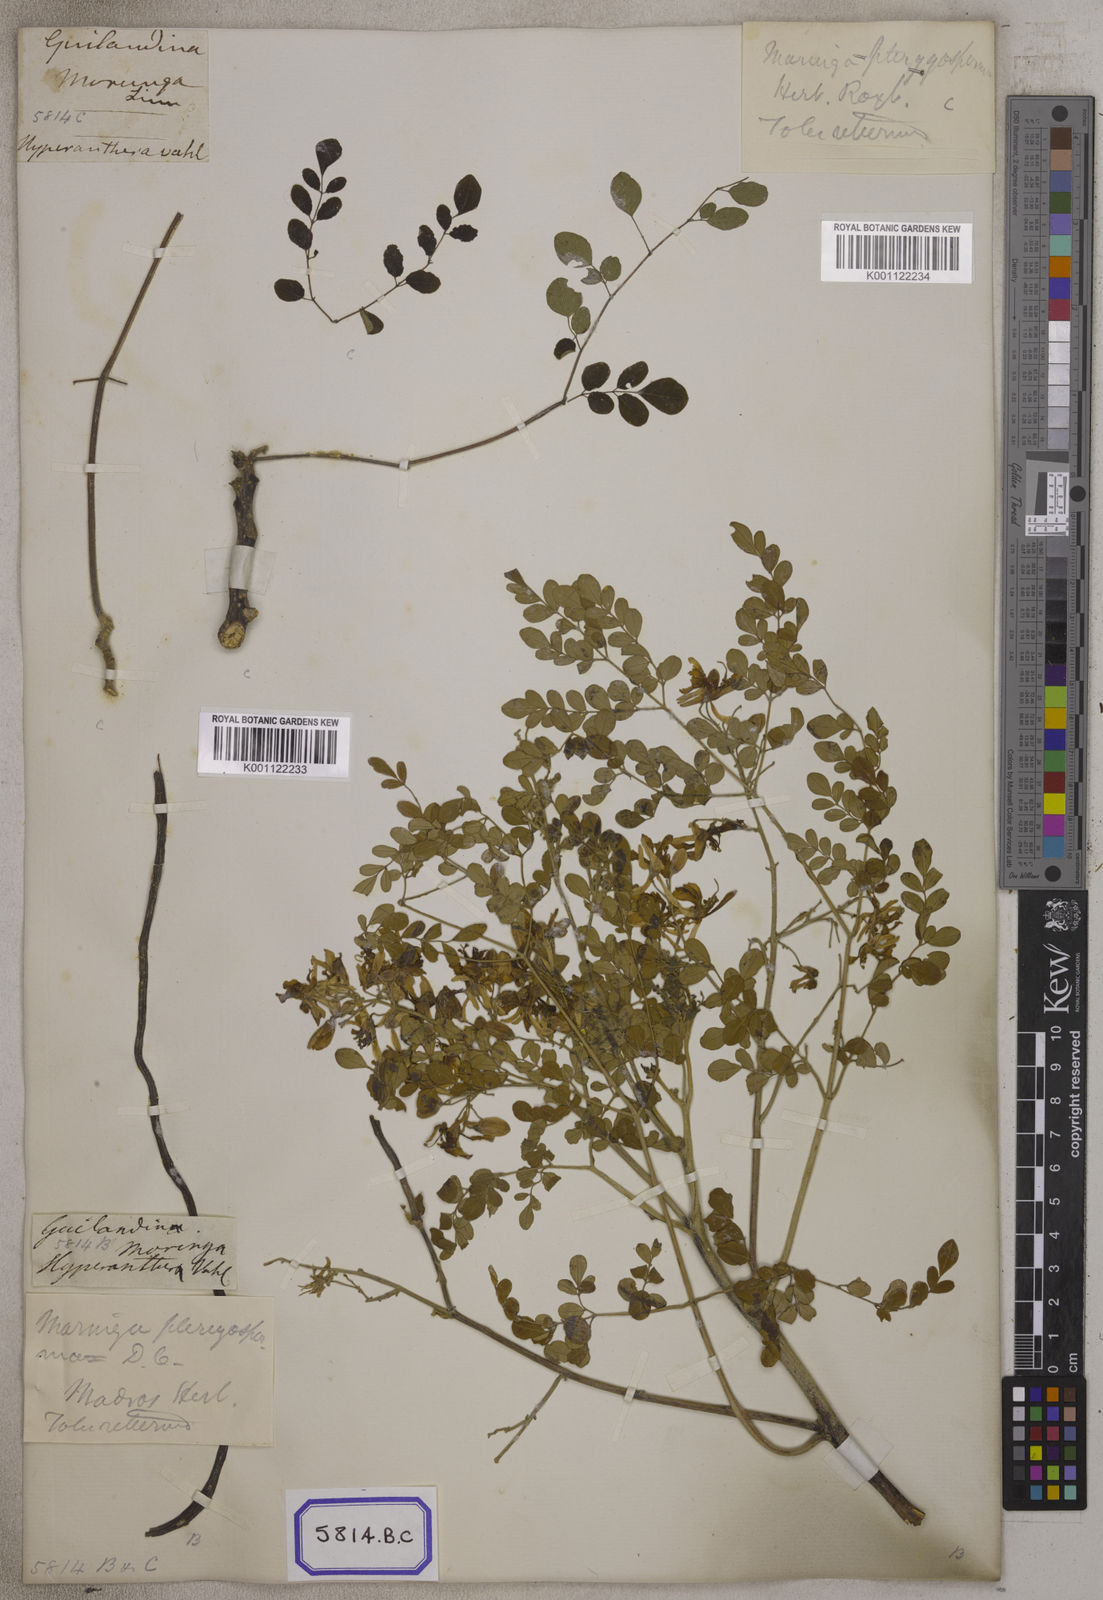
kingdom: Plantae
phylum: Tracheophyta
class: Magnoliopsida
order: Brassicales
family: Moringaceae
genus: Moringa
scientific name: Moringa oleifera
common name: Horseradish-tree
